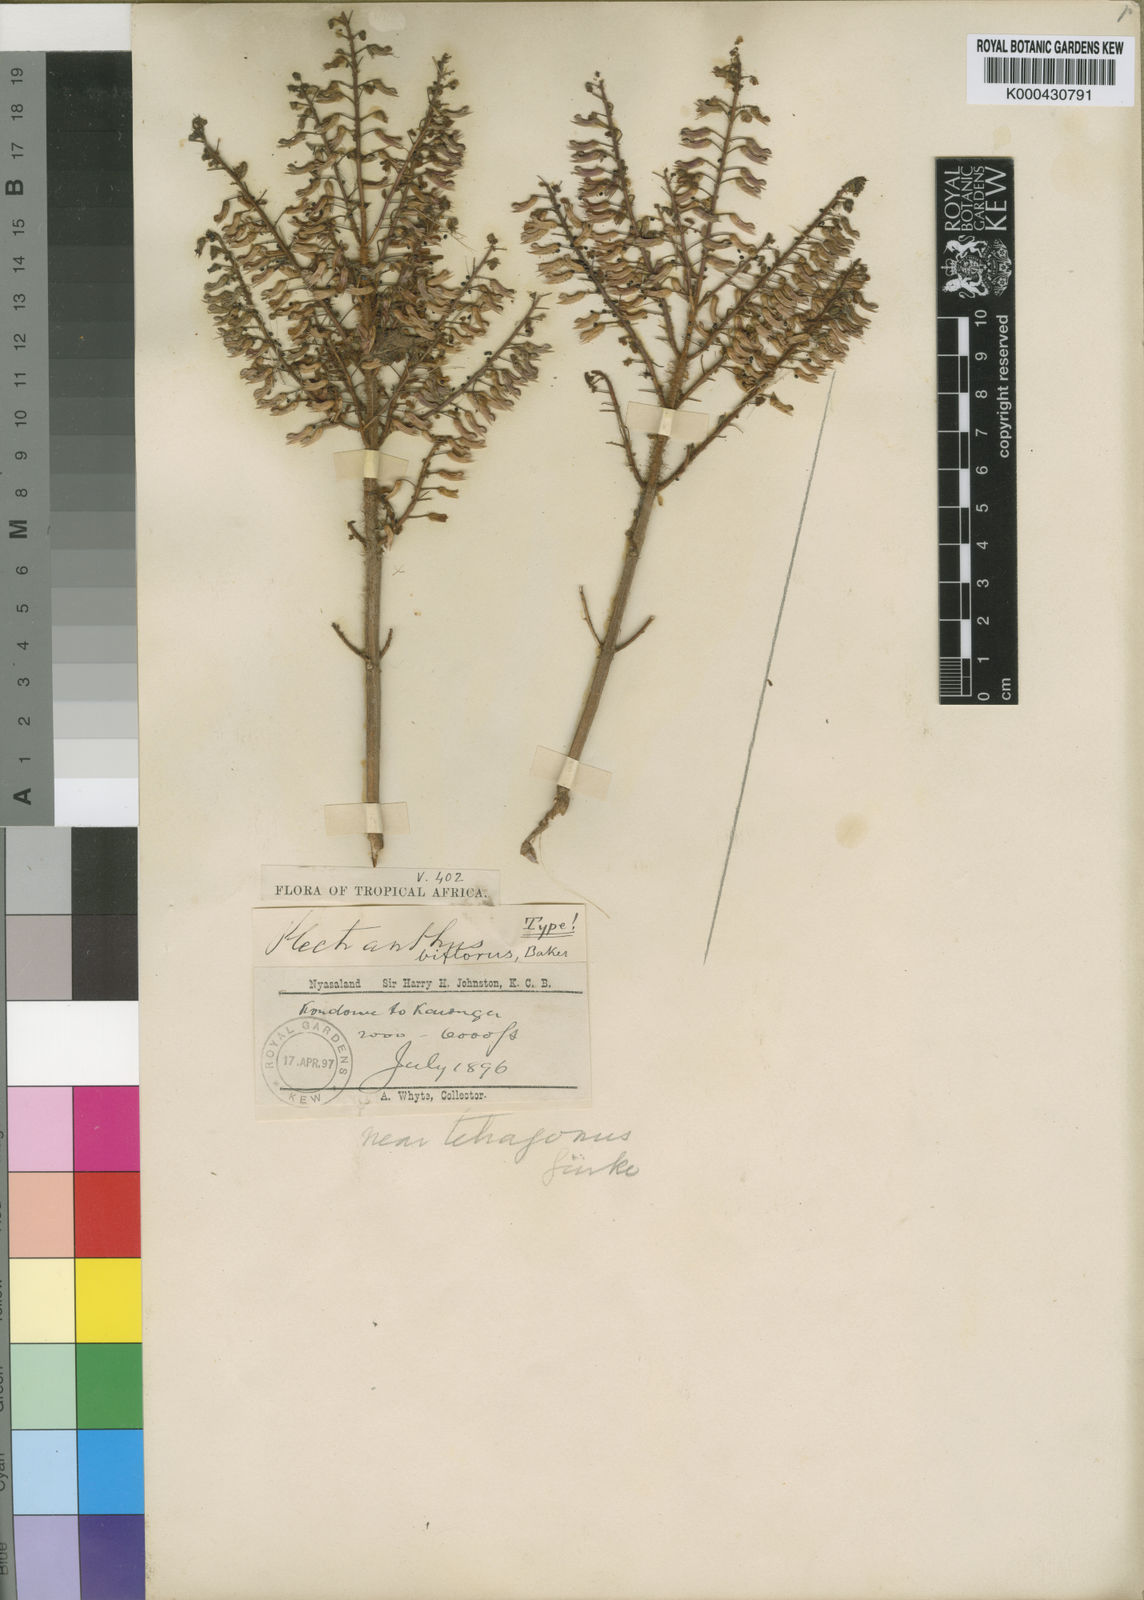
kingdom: Plantae
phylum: Tracheophyta
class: Magnoliopsida
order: Lamiales
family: Lamiaceae
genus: Coleus
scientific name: Coleus tetragonus
